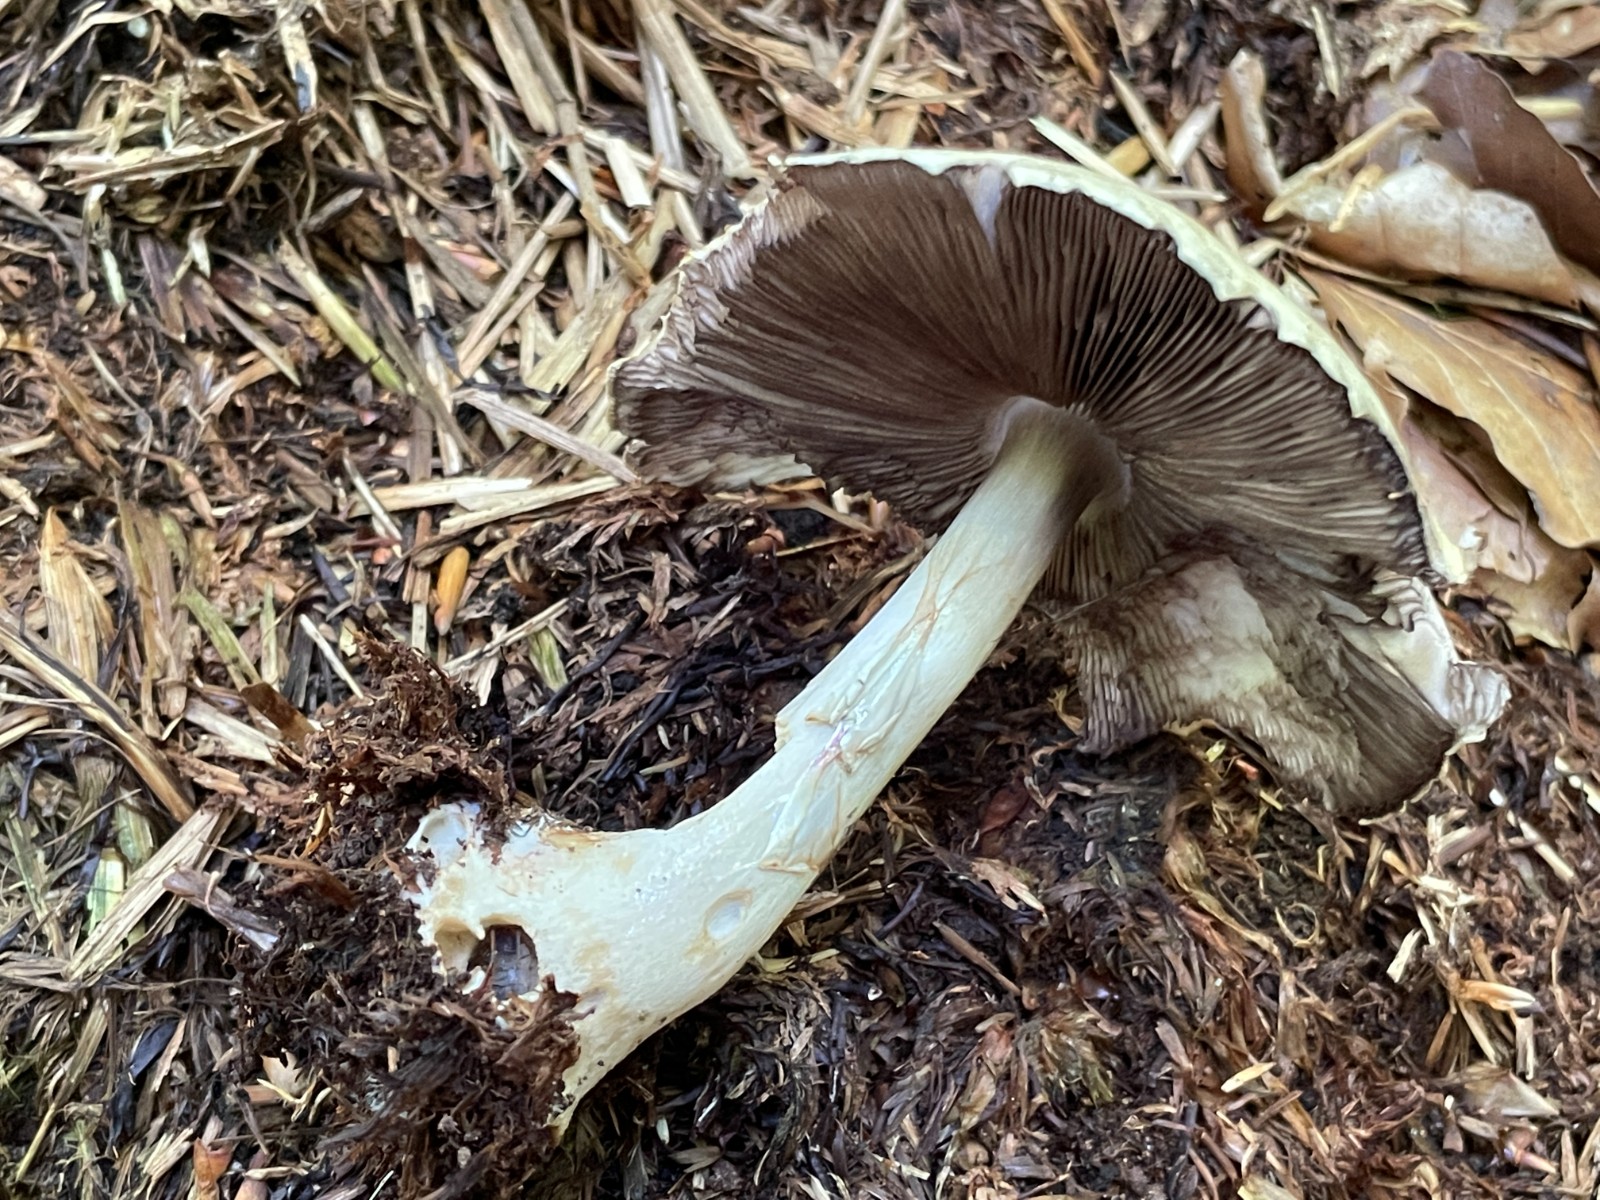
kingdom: Fungi
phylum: Basidiomycota
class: Agaricomycetes
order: Agaricales
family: Agaricaceae
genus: Agaricus
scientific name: Agaricus
